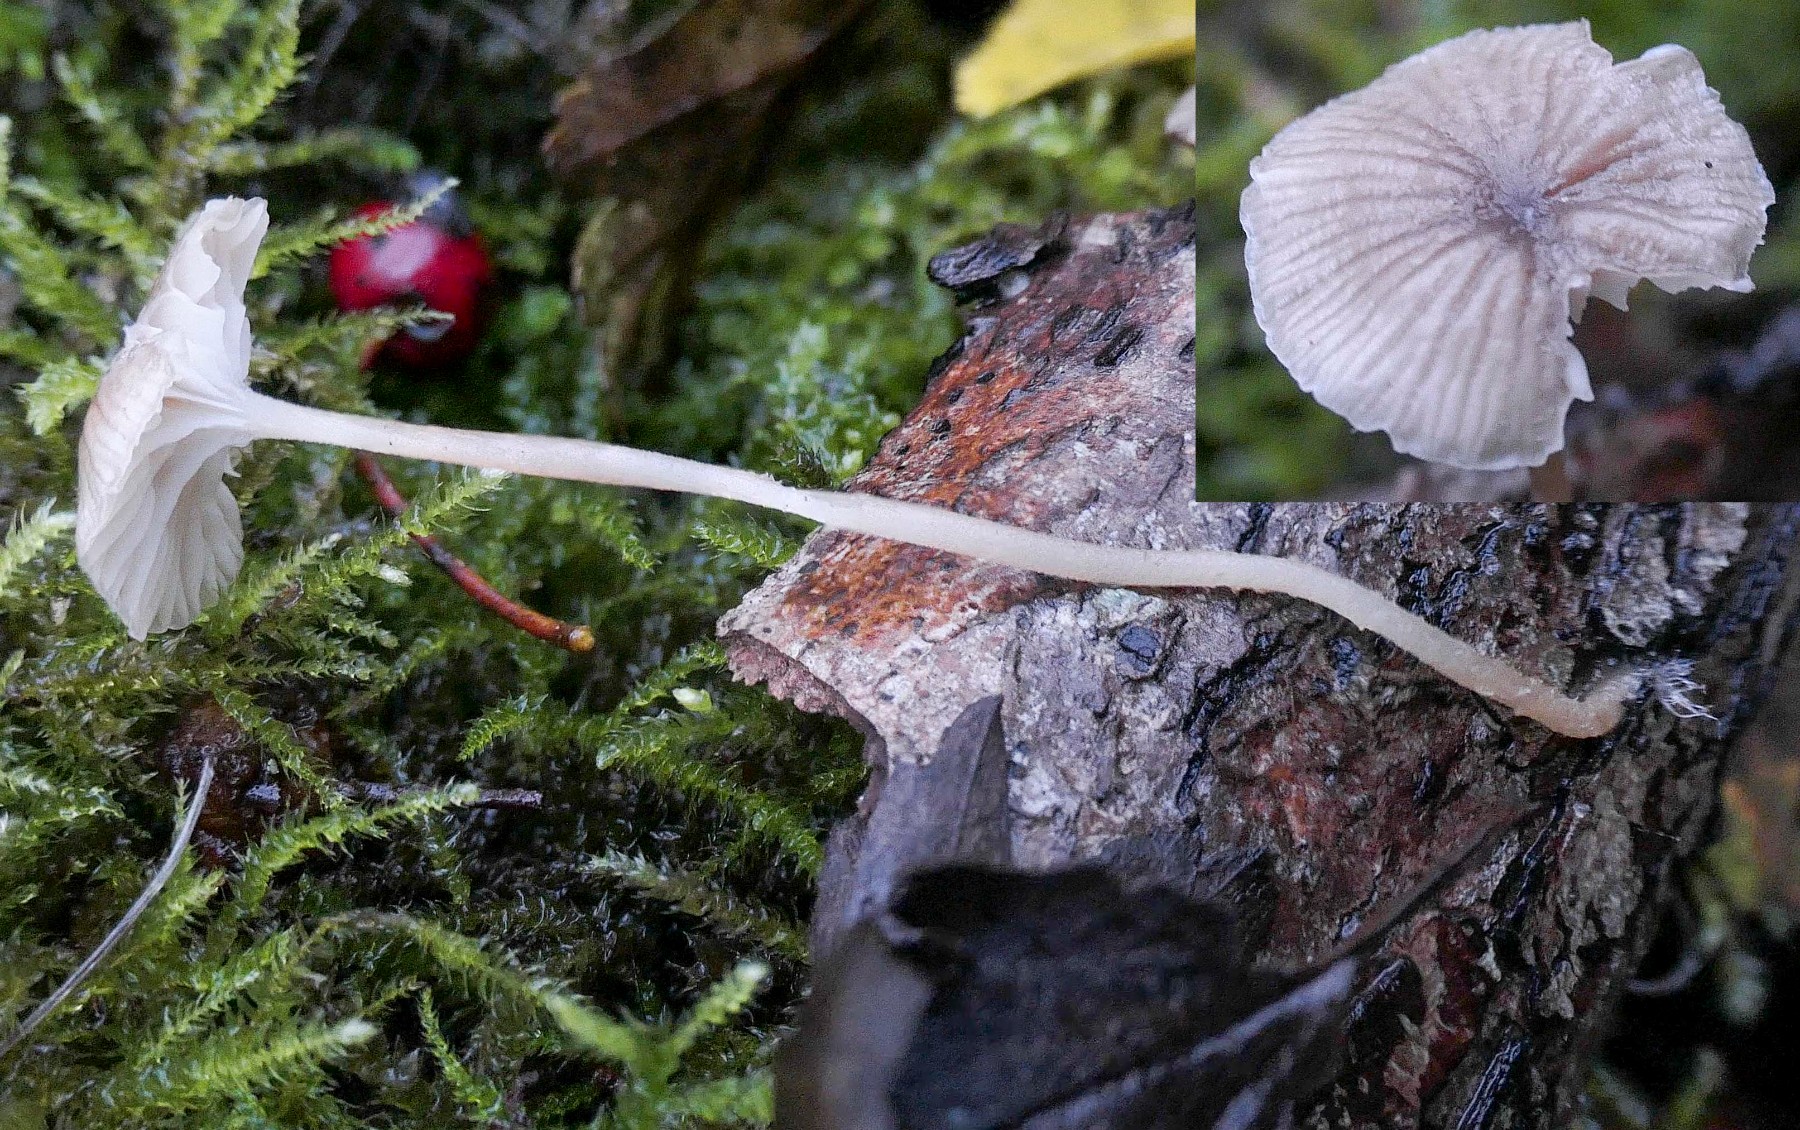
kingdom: Fungi
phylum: Basidiomycota
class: Agaricomycetes
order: Agaricales
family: Porotheleaceae
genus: Phloeomana
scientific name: Phloeomana speirea
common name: kvist-huesvamp
